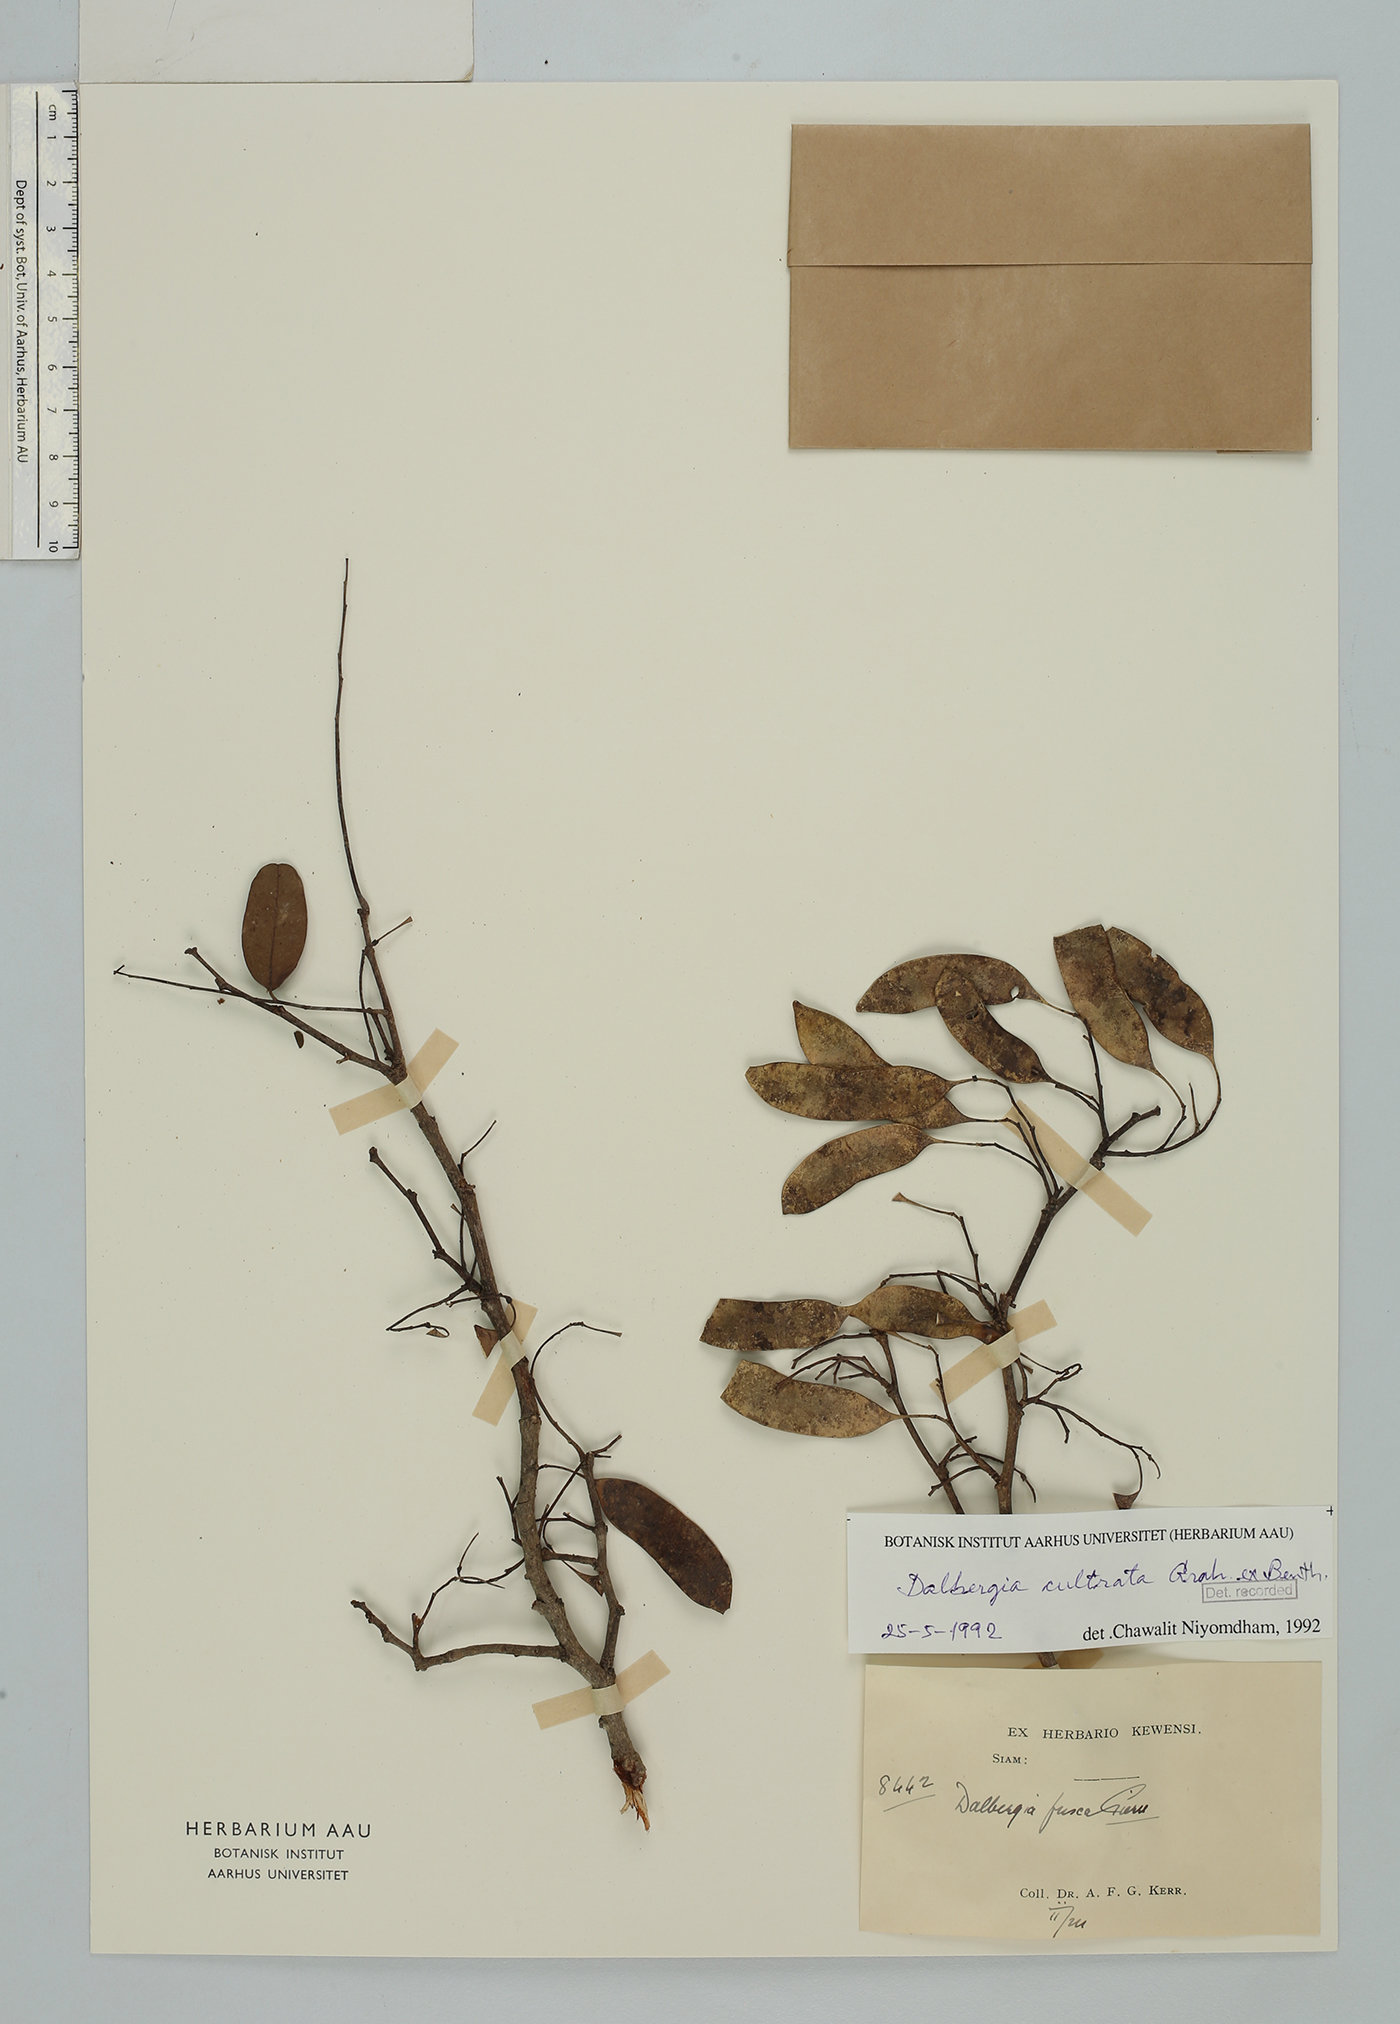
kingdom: Plantae
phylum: Tracheophyta
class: Magnoliopsida
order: Fabales
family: Fabaceae
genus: Dalbergia
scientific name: Dalbergia cultrata
